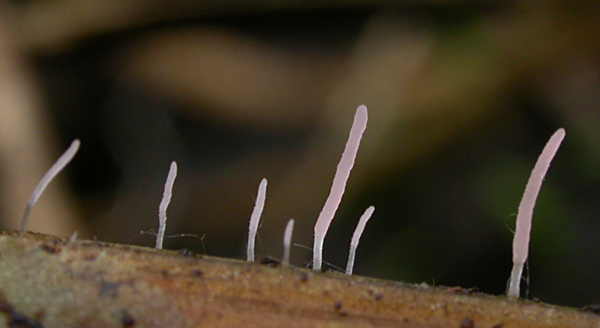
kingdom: Fungi
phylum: Basidiomycota
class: Agaricomycetes
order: Agaricales
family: Typhulaceae
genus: Typhula
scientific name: Typhula micans
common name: lyserød trådkølle
